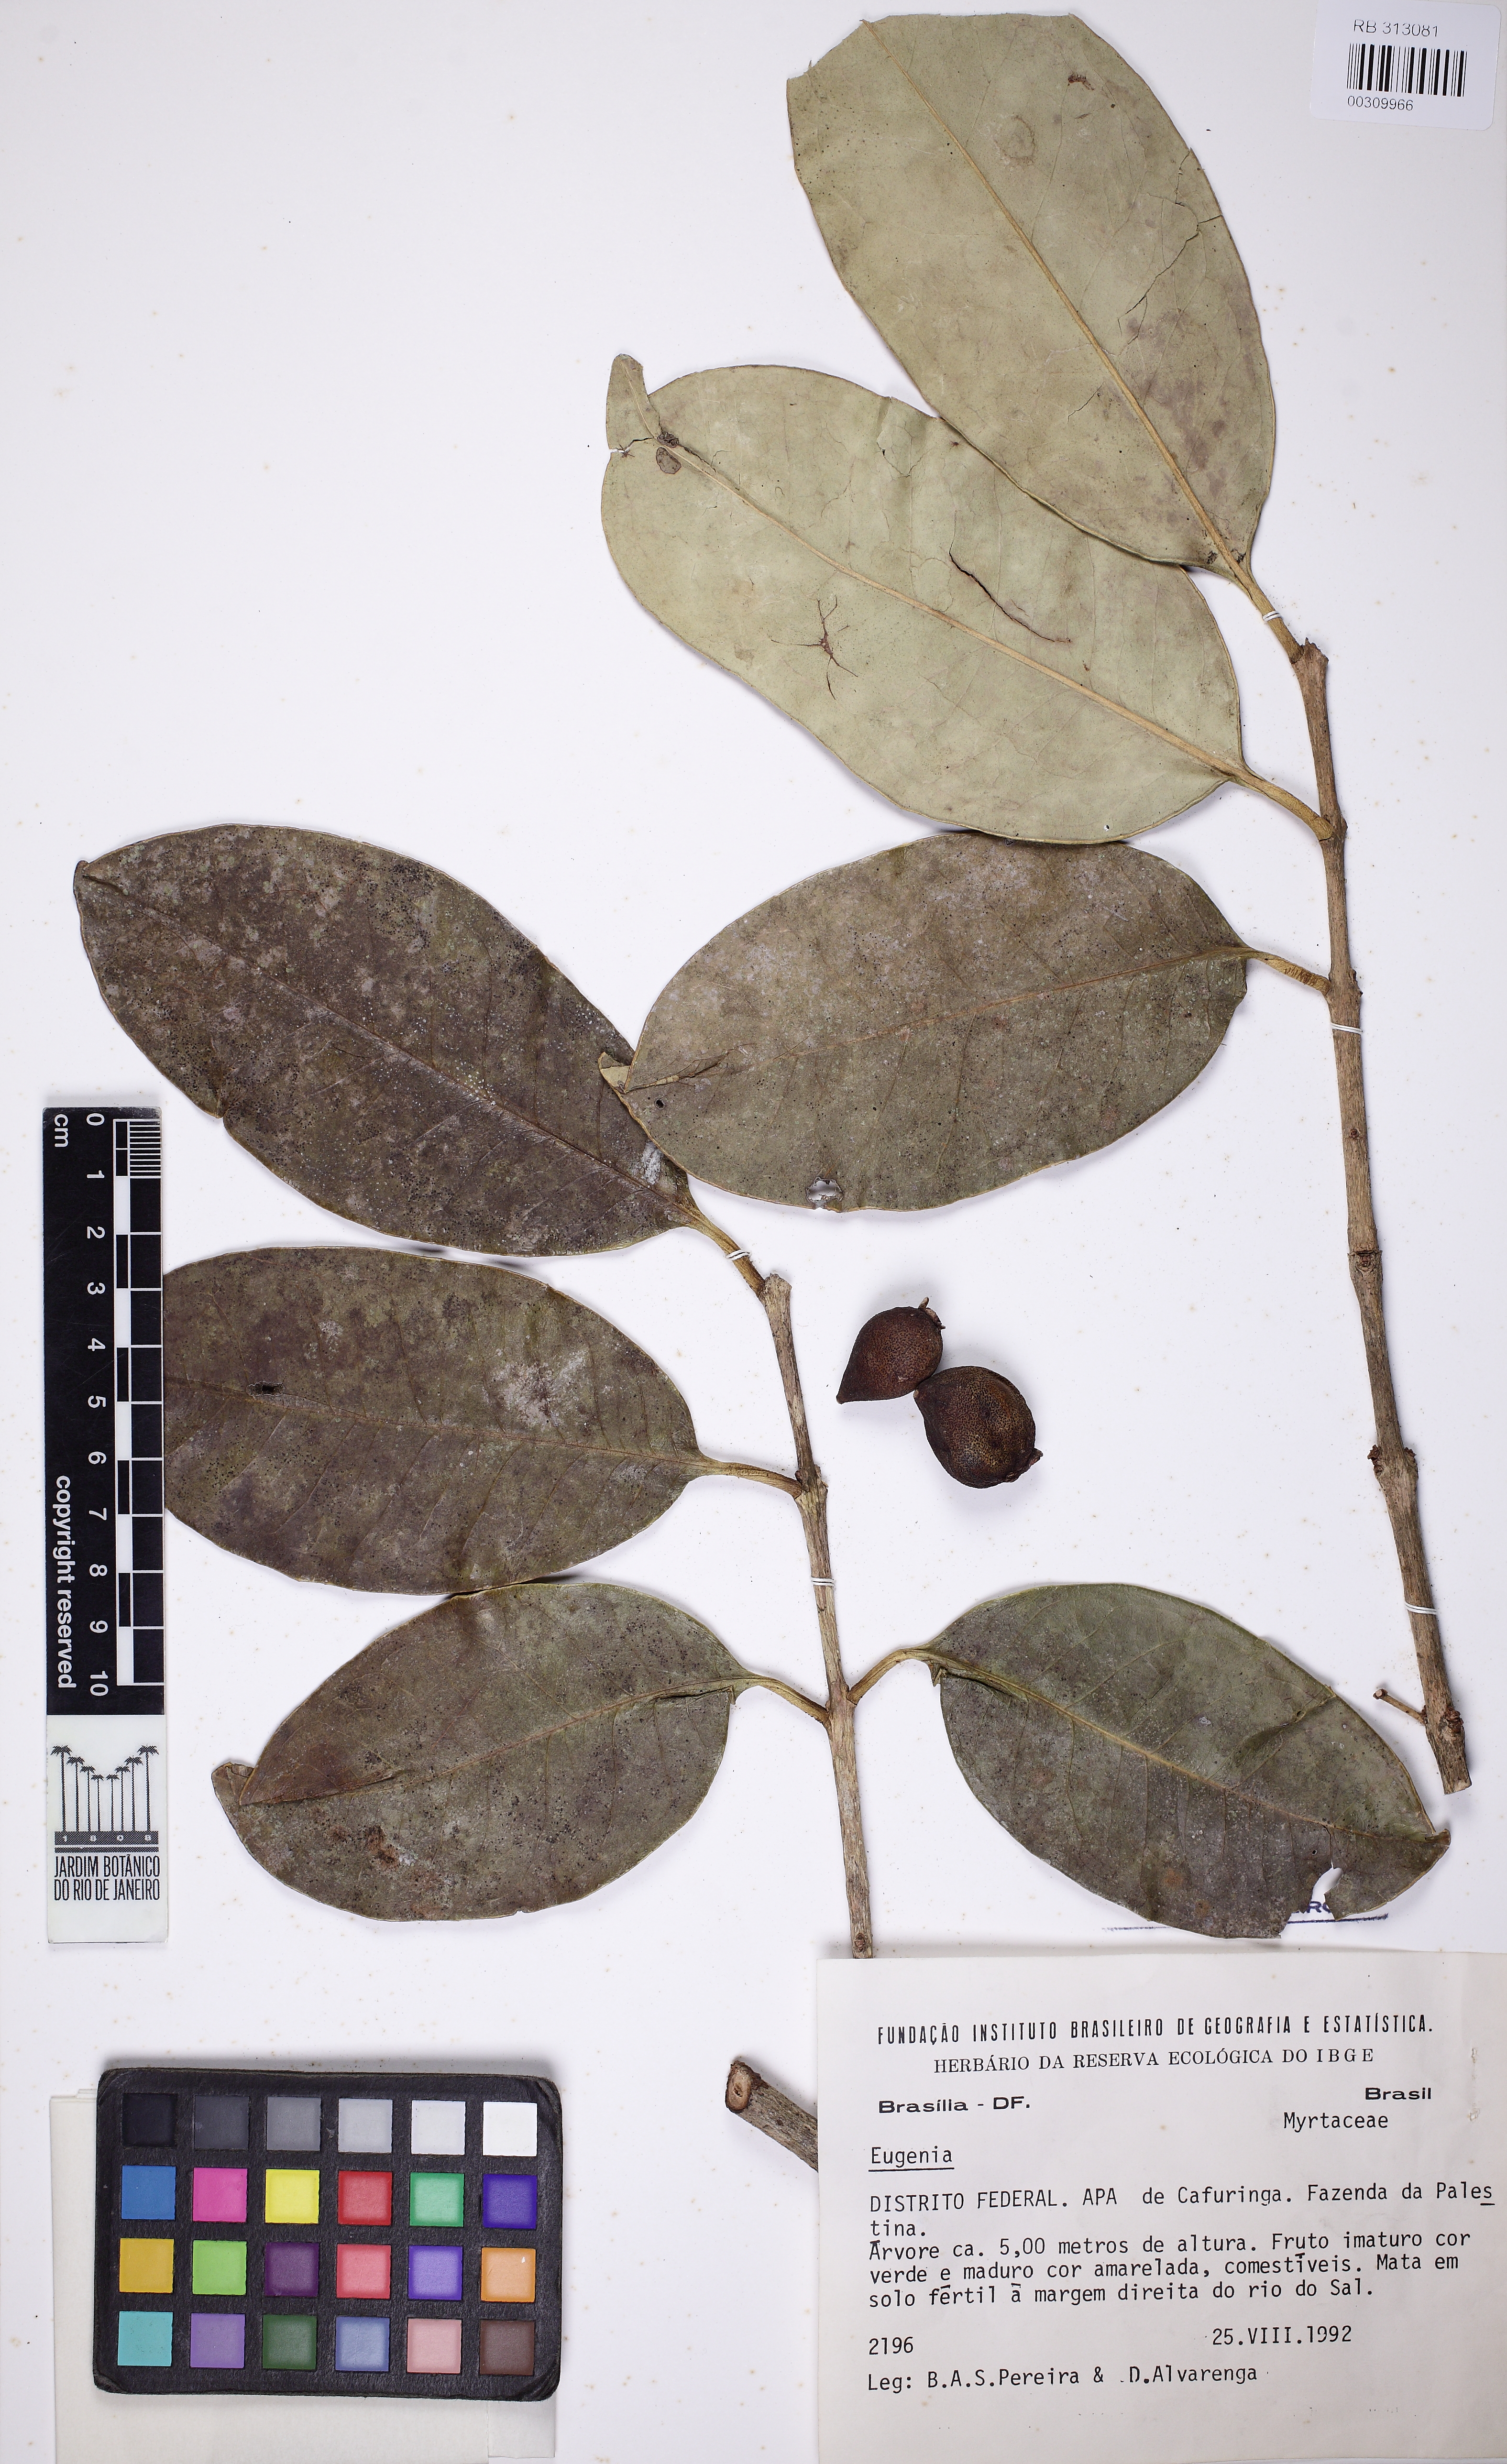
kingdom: Plantae
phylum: Tracheophyta
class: Magnoliopsida
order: Myrtales
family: Myrtaceae
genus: Eugenia
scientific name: Eugenia
